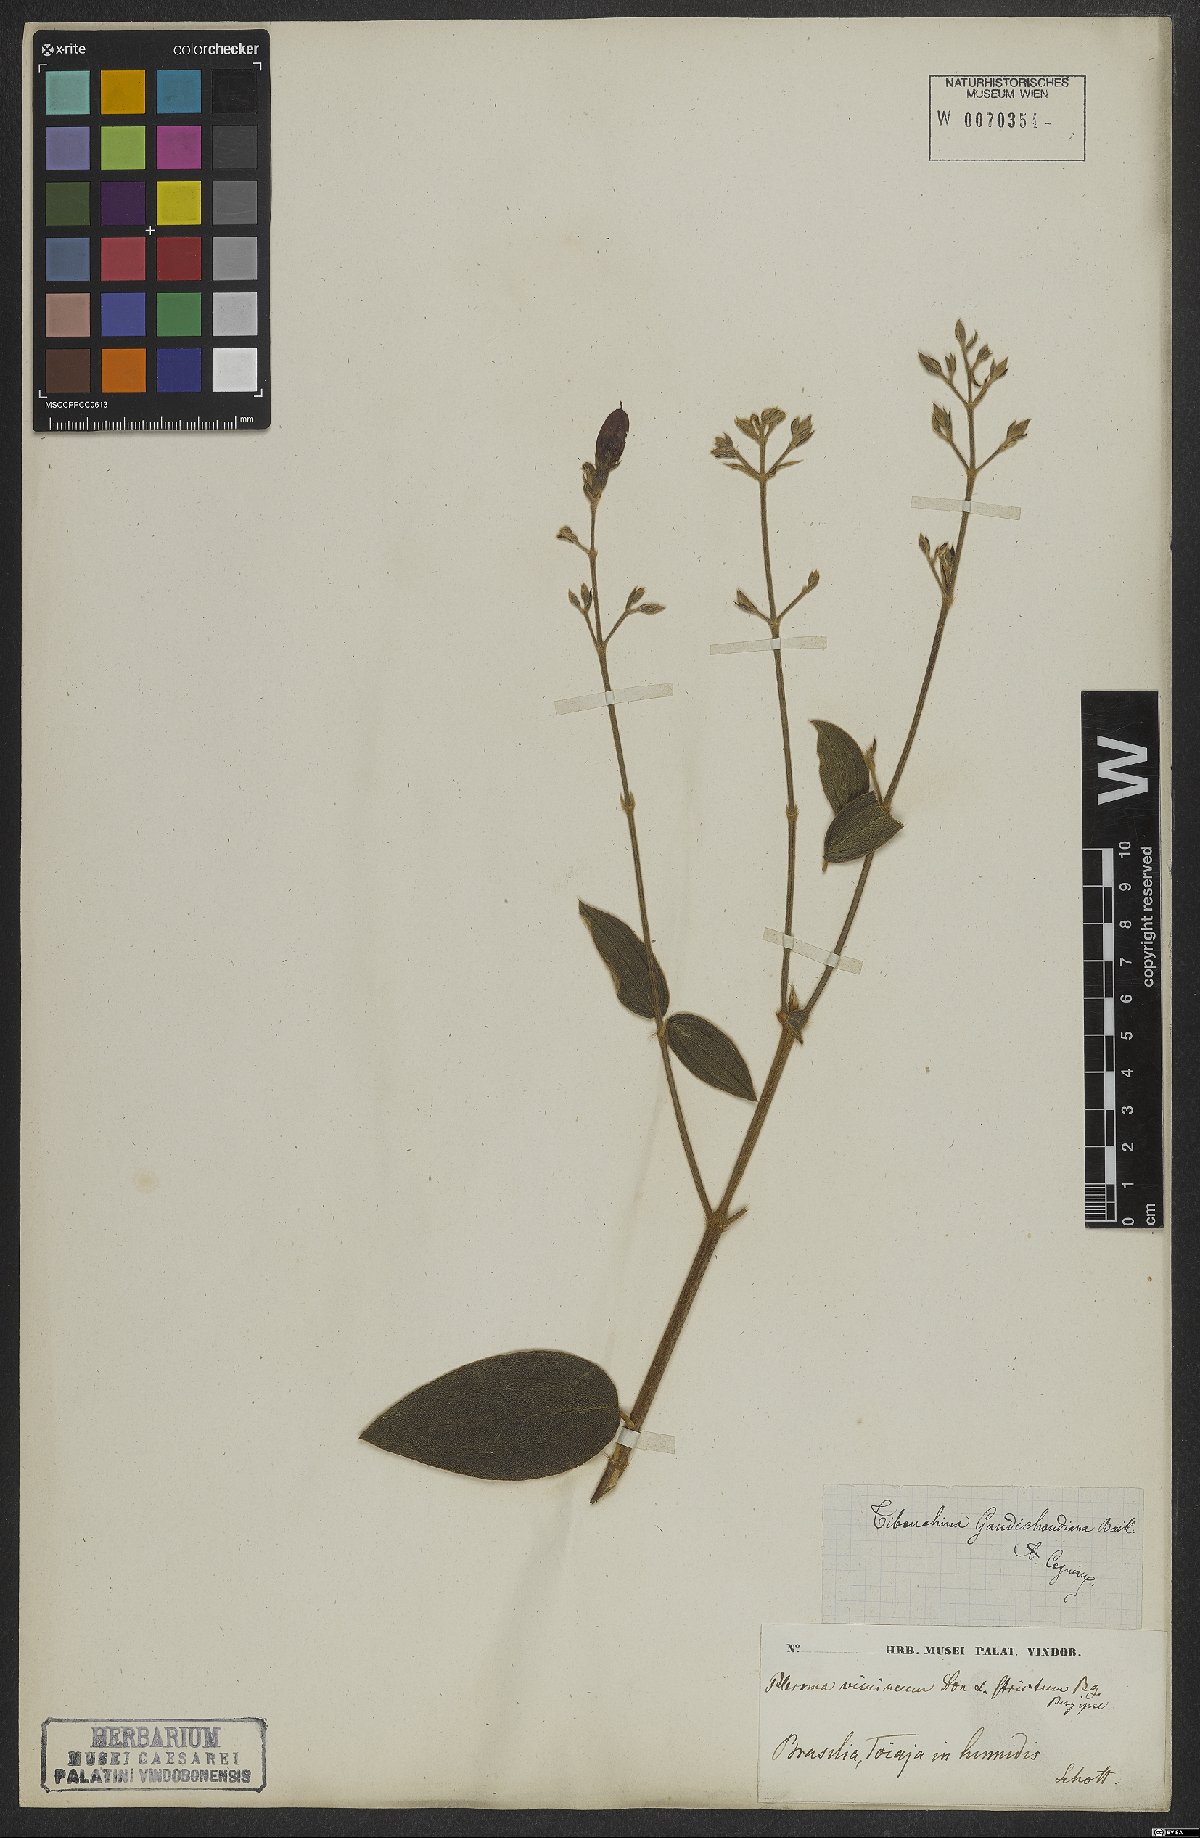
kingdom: Plantae
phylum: Tracheophyta
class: Magnoliopsida
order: Myrtales
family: Melastomataceae
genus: Pleroma
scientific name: Pleroma gaudichaudianum
